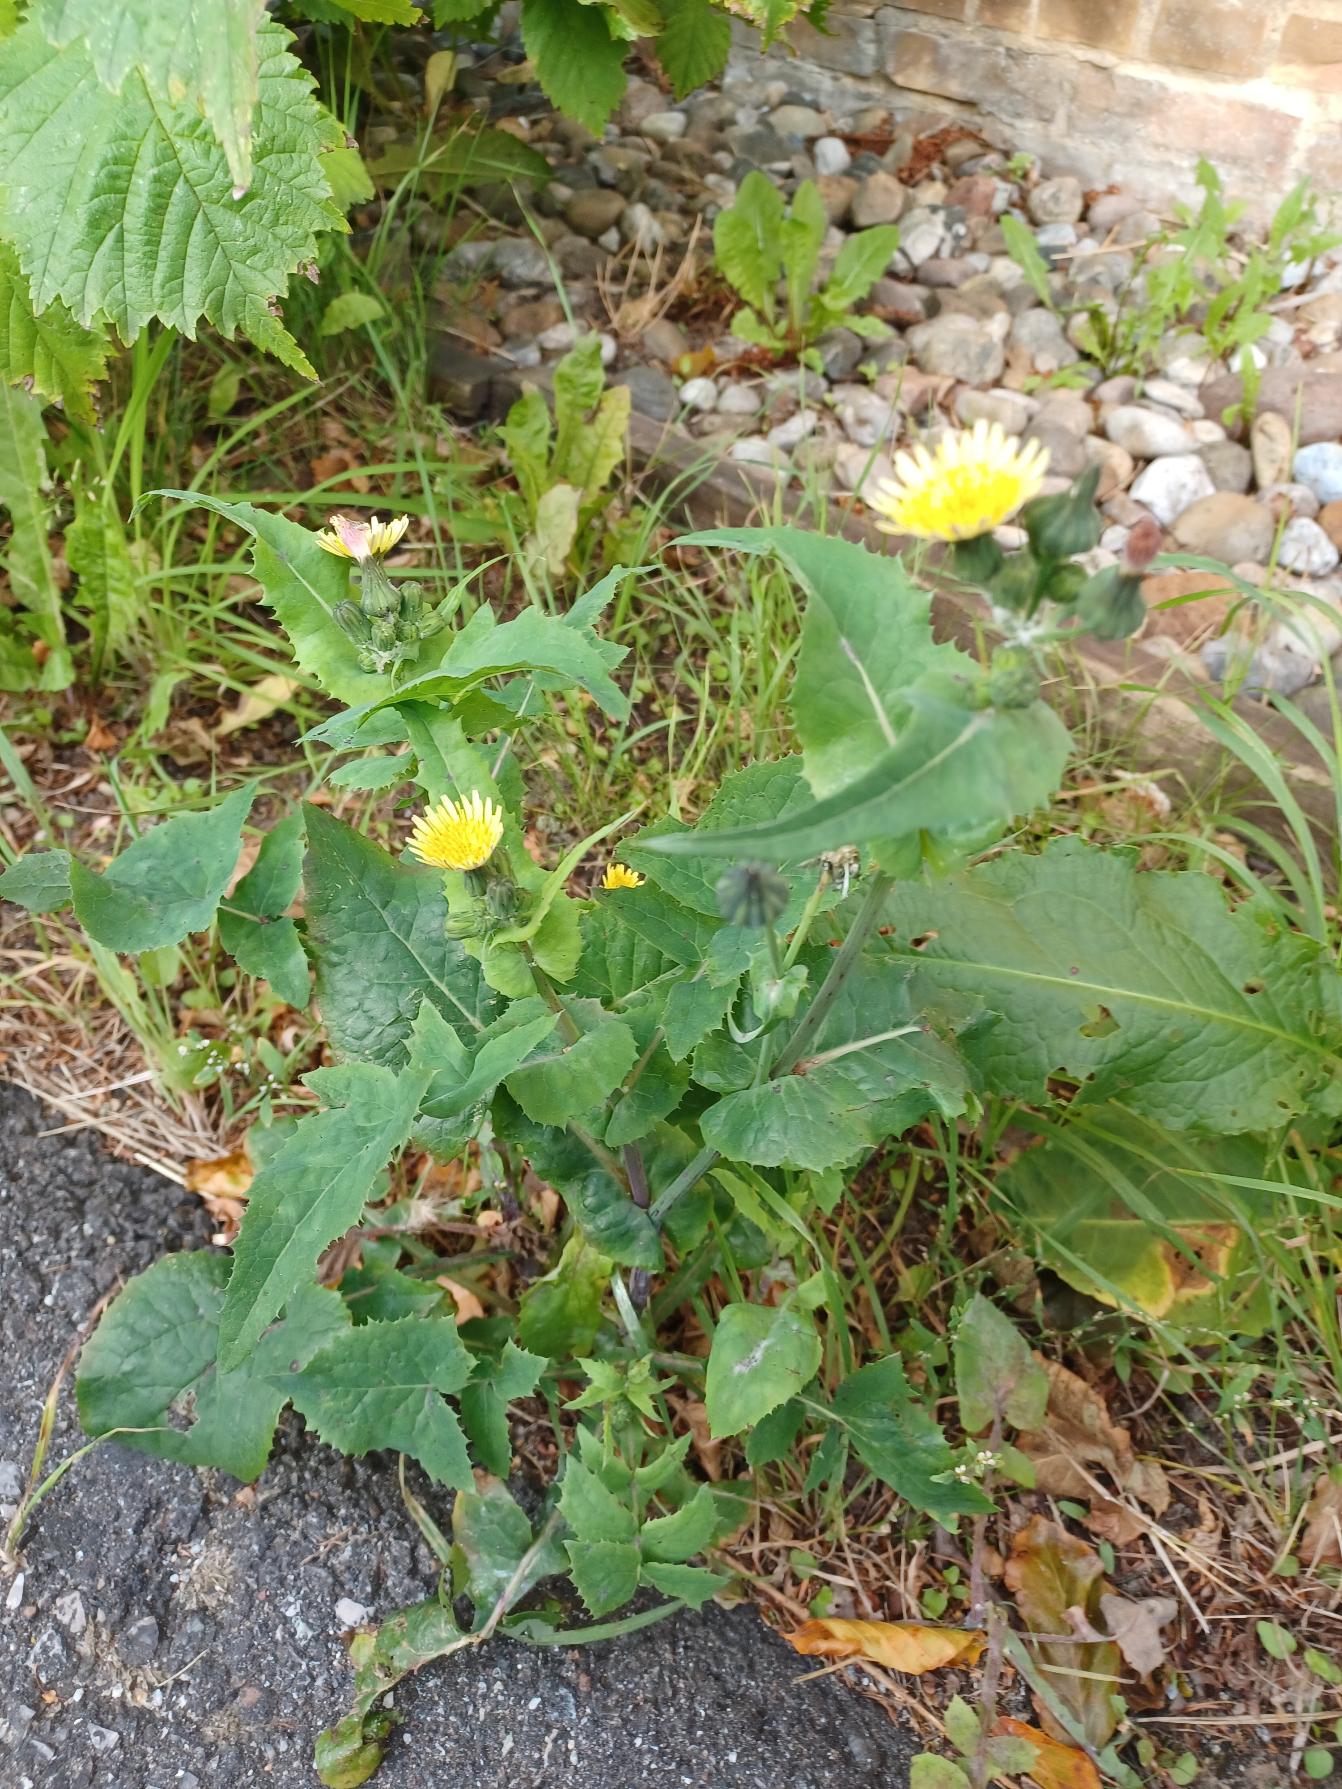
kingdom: Plantae
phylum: Tracheophyta
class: Magnoliopsida
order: Asterales
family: Asteraceae
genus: Sonchus
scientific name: Sonchus oleraceus
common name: Almindelig svinemælk
